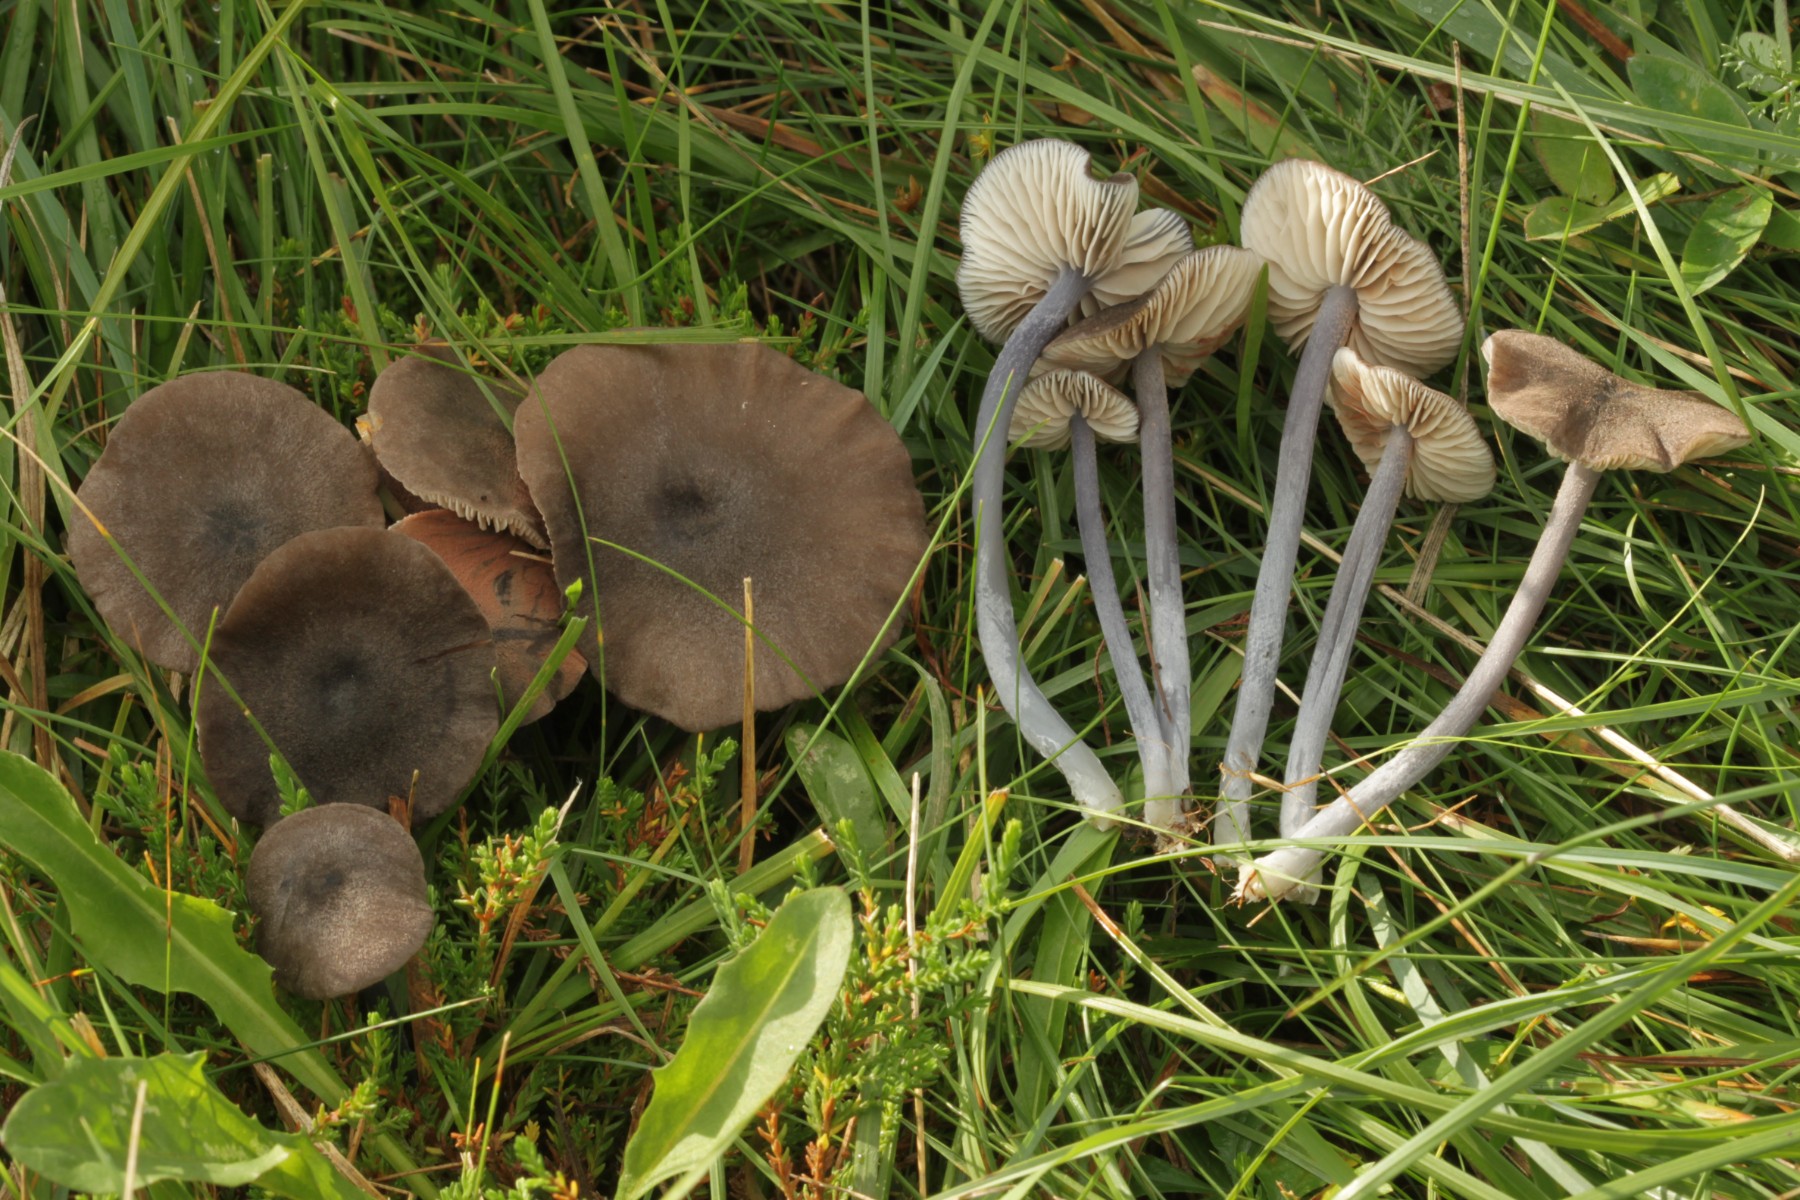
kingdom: Fungi
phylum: Basidiomycota
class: Agaricomycetes
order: Agaricales
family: Entolomataceae
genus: Entoloma
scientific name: Entoloma griseocyaneum
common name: gråblå rødblad
